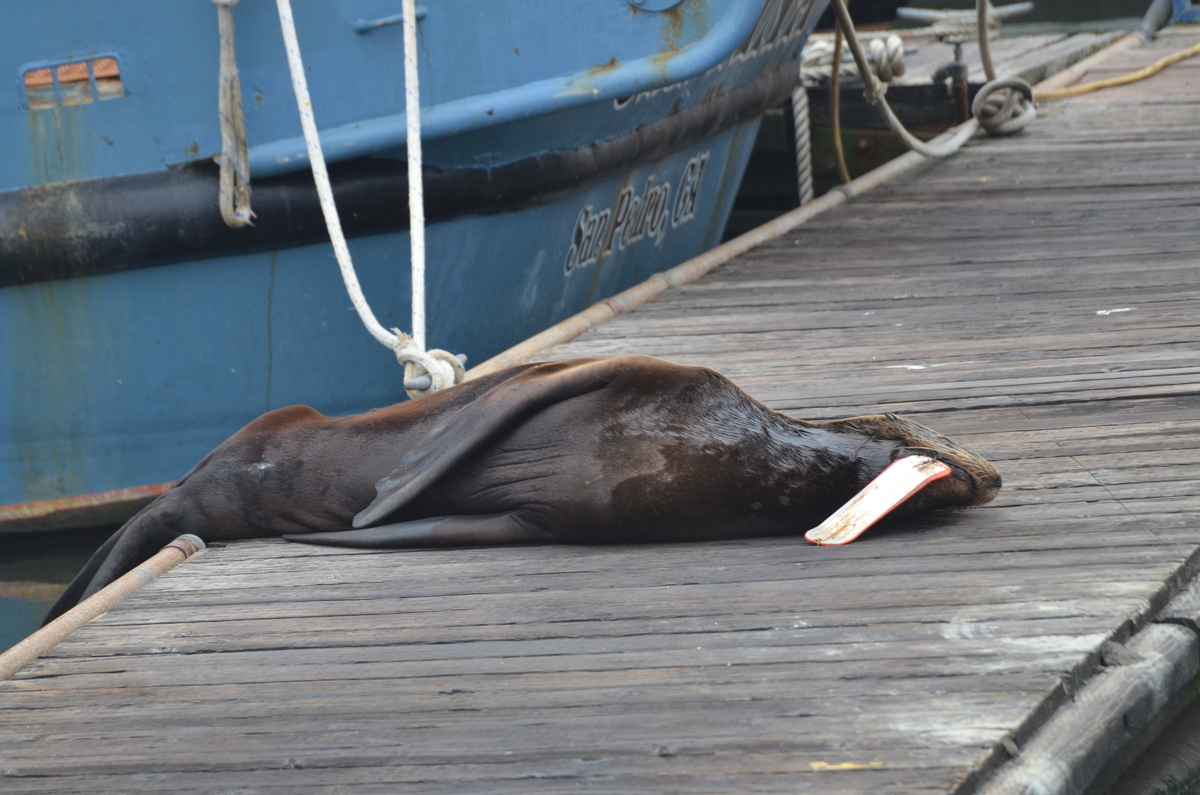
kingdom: Animalia
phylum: Chordata
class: Mammalia
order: Carnivora
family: Otariidae
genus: Zalophus
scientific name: Zalophus californianus
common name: California sea lion
